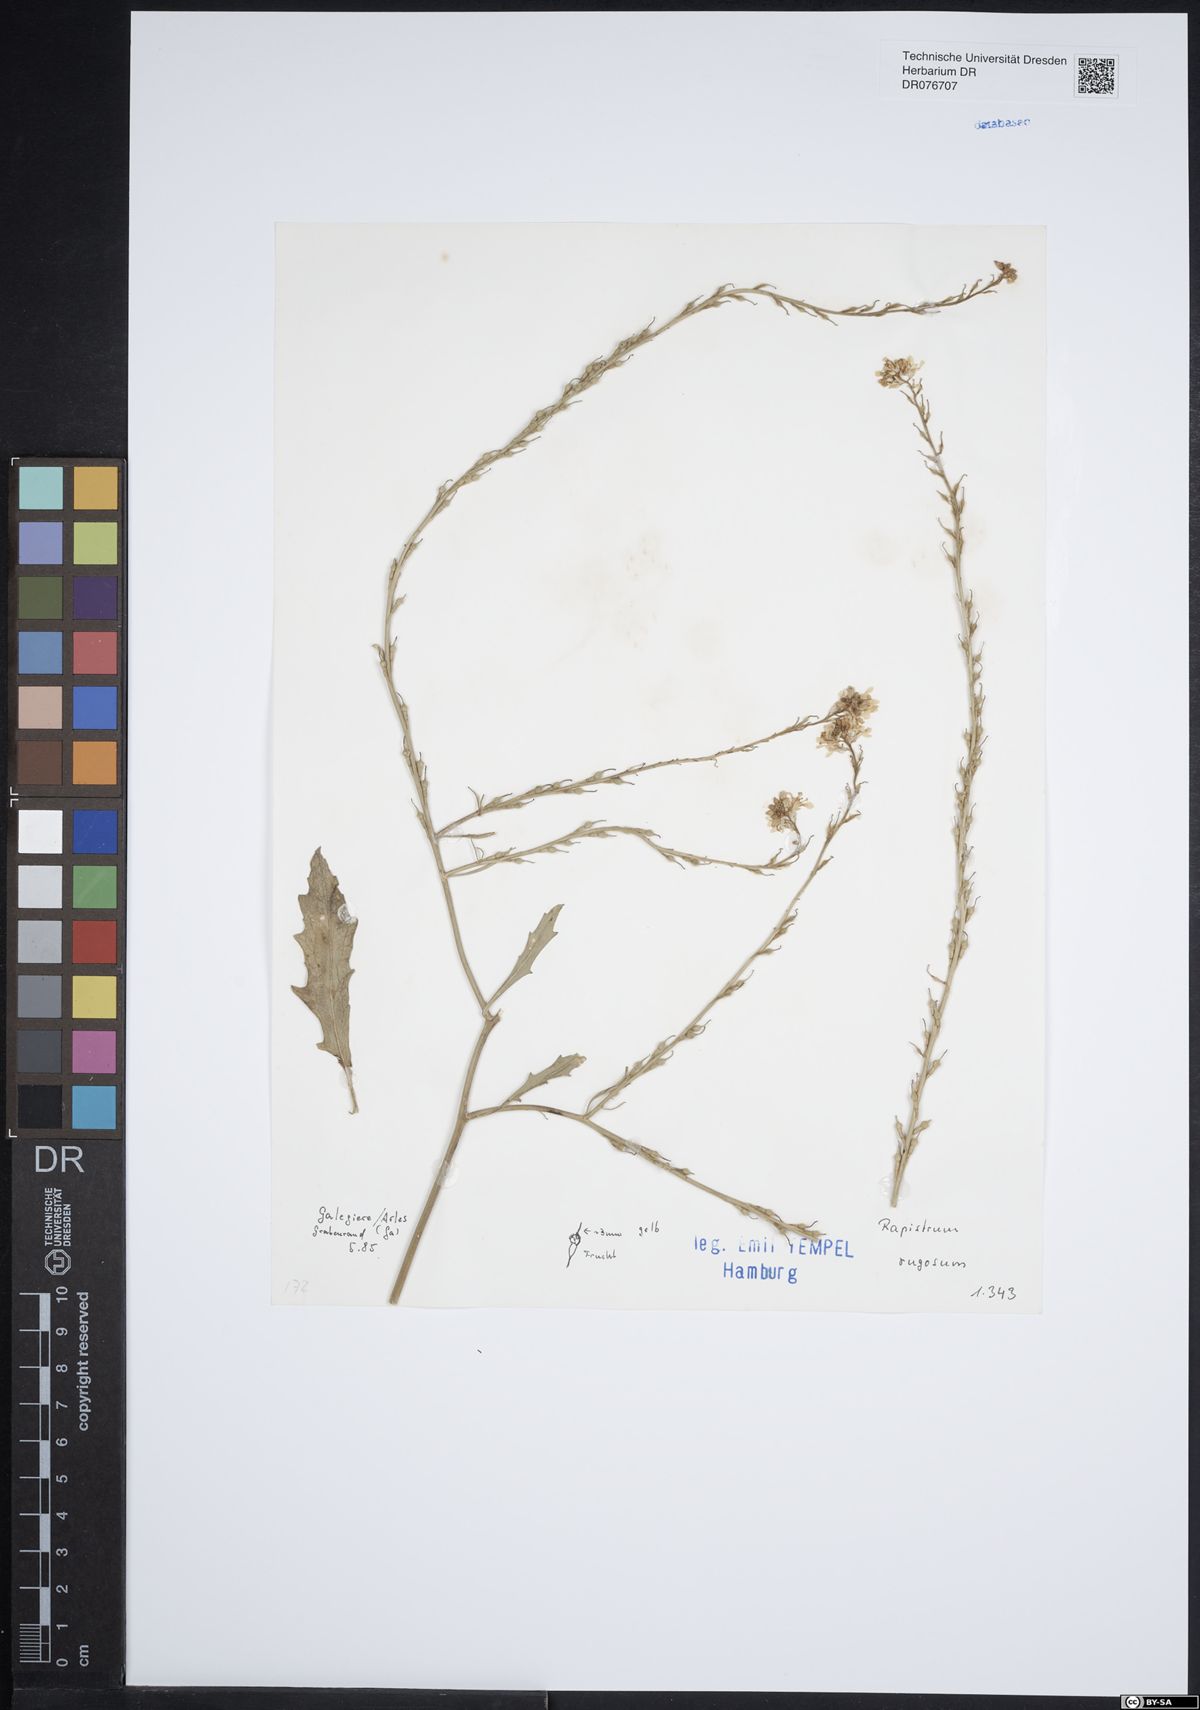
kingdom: Plantae
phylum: Tracheophyta
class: Magnoliopsida
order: Brassicales
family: Brassicaceae
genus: Rapistrum
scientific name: Rapistrum rugosum
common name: Annual bastardcabbage
